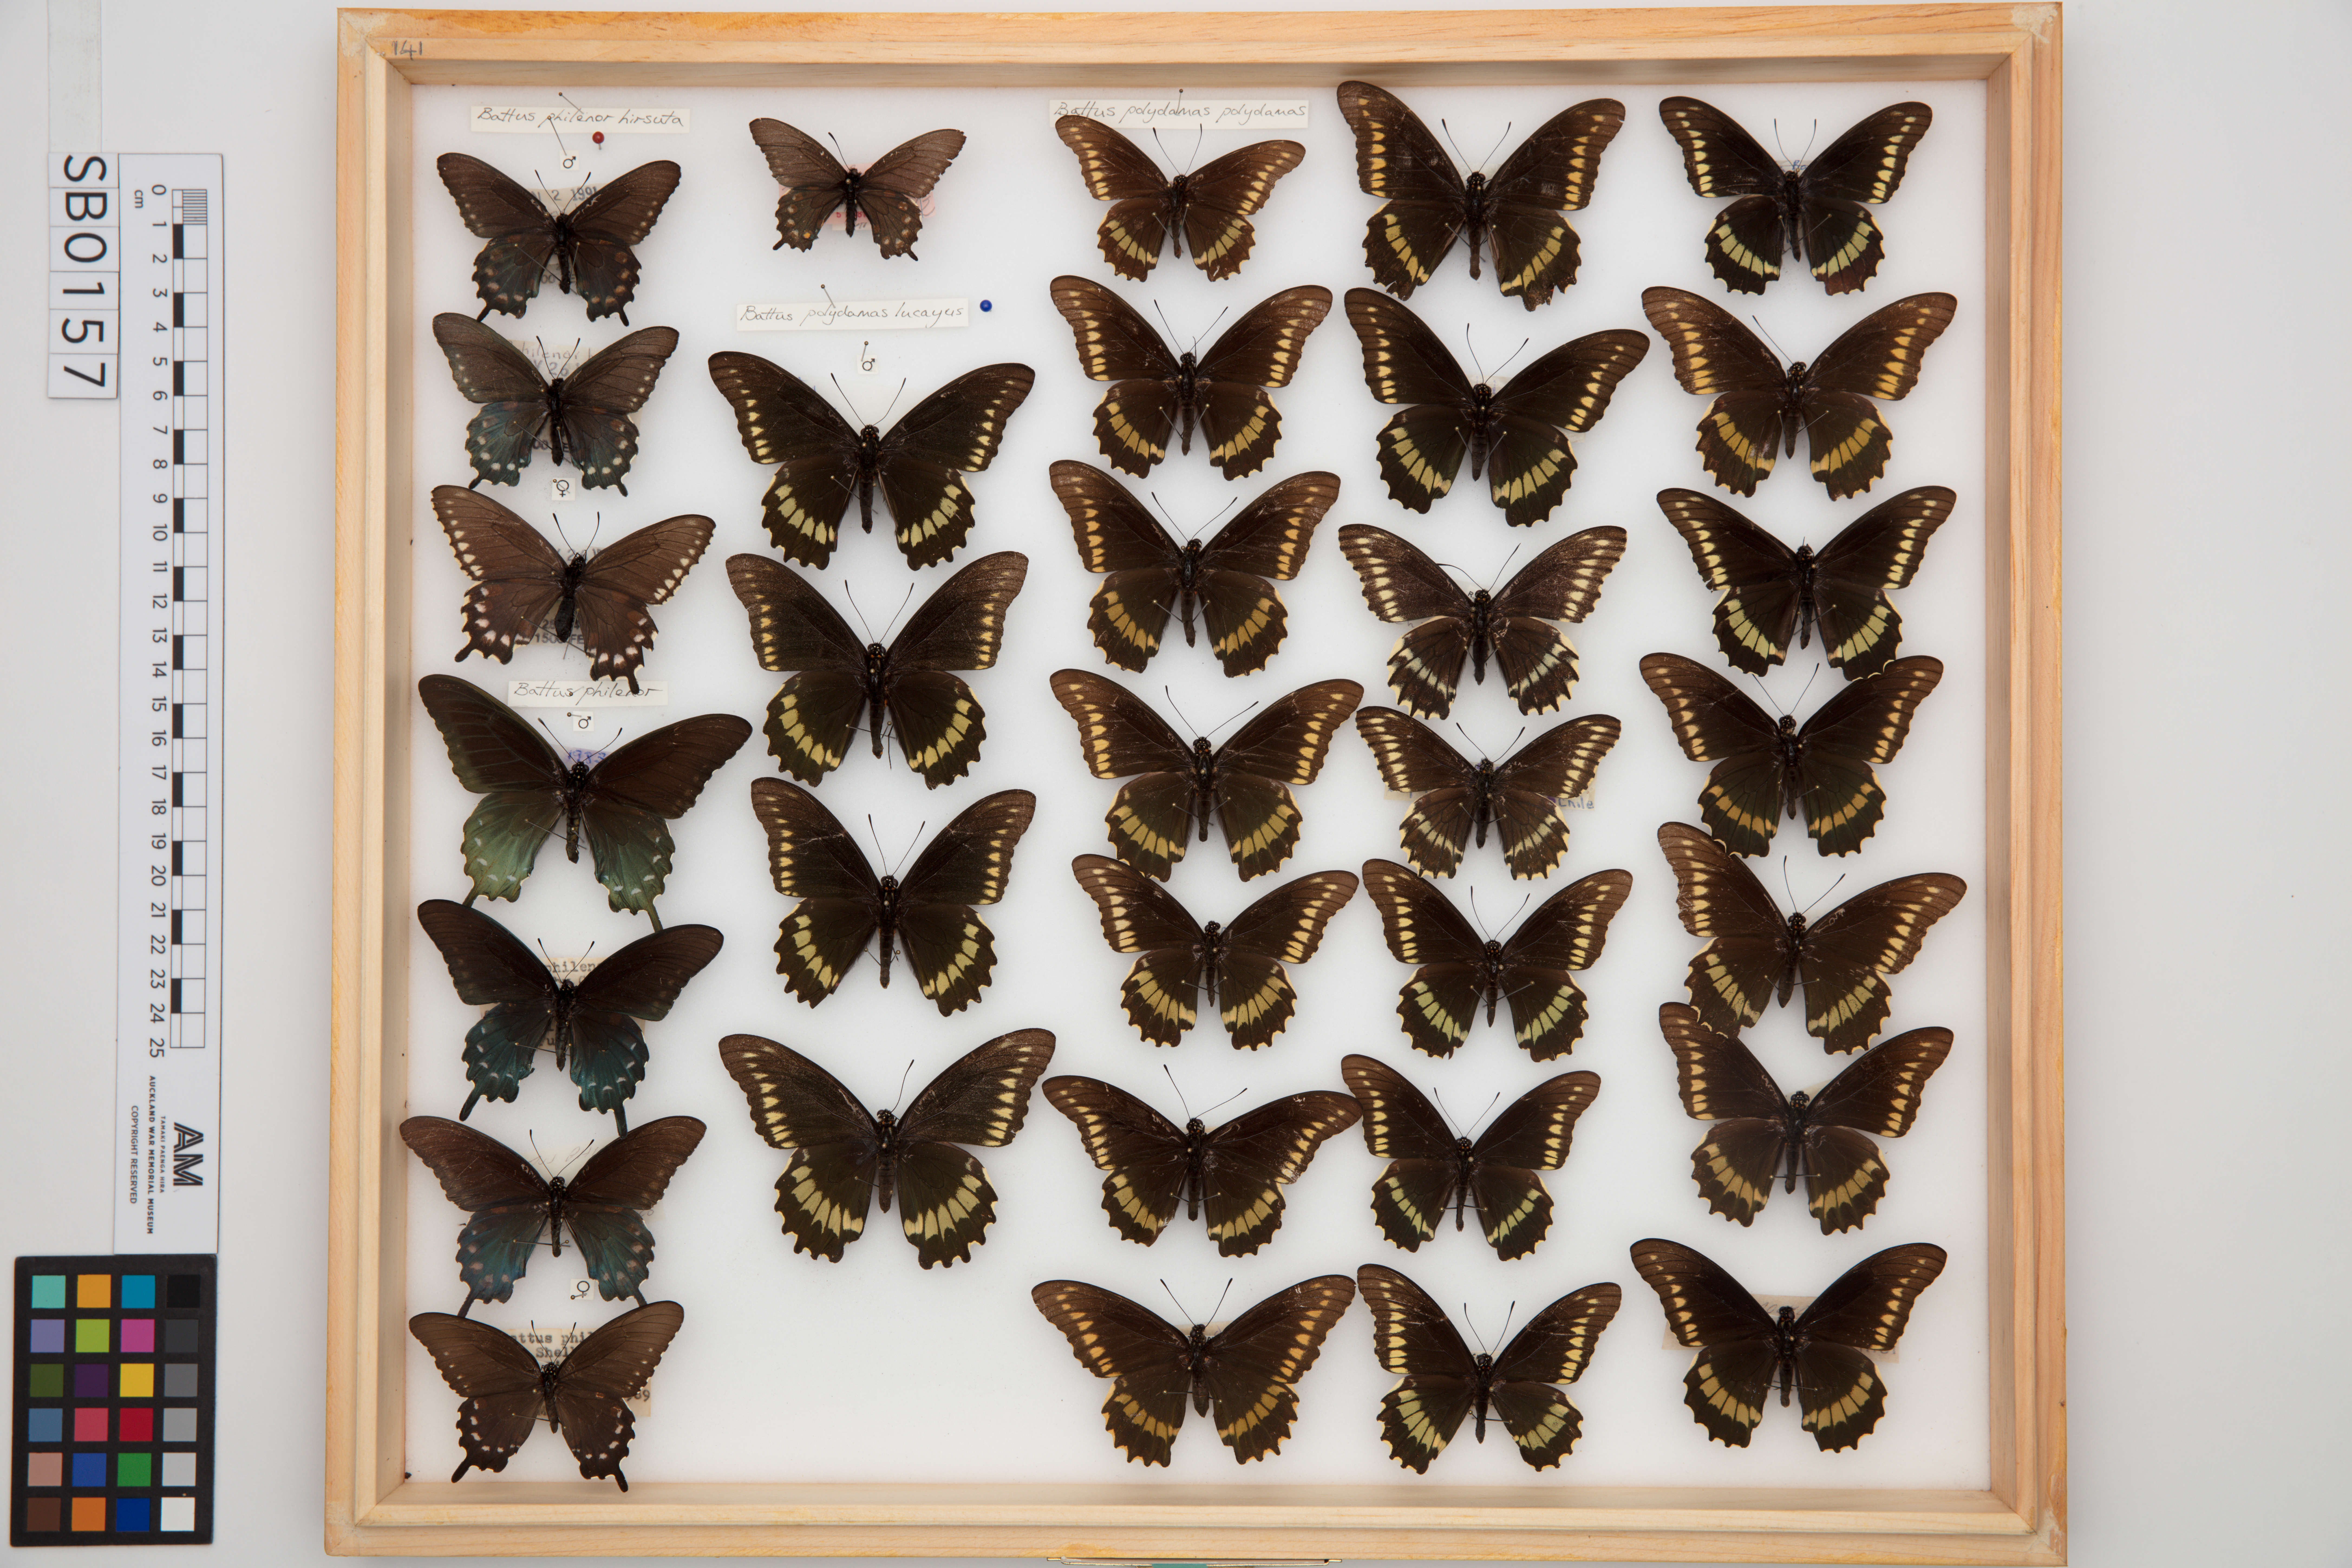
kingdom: Animalia
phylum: Arthropoda
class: Insecta
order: Lepidoptera
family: Papilionidae
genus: Battus
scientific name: Battus philenor
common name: Pipevine swallowtail
